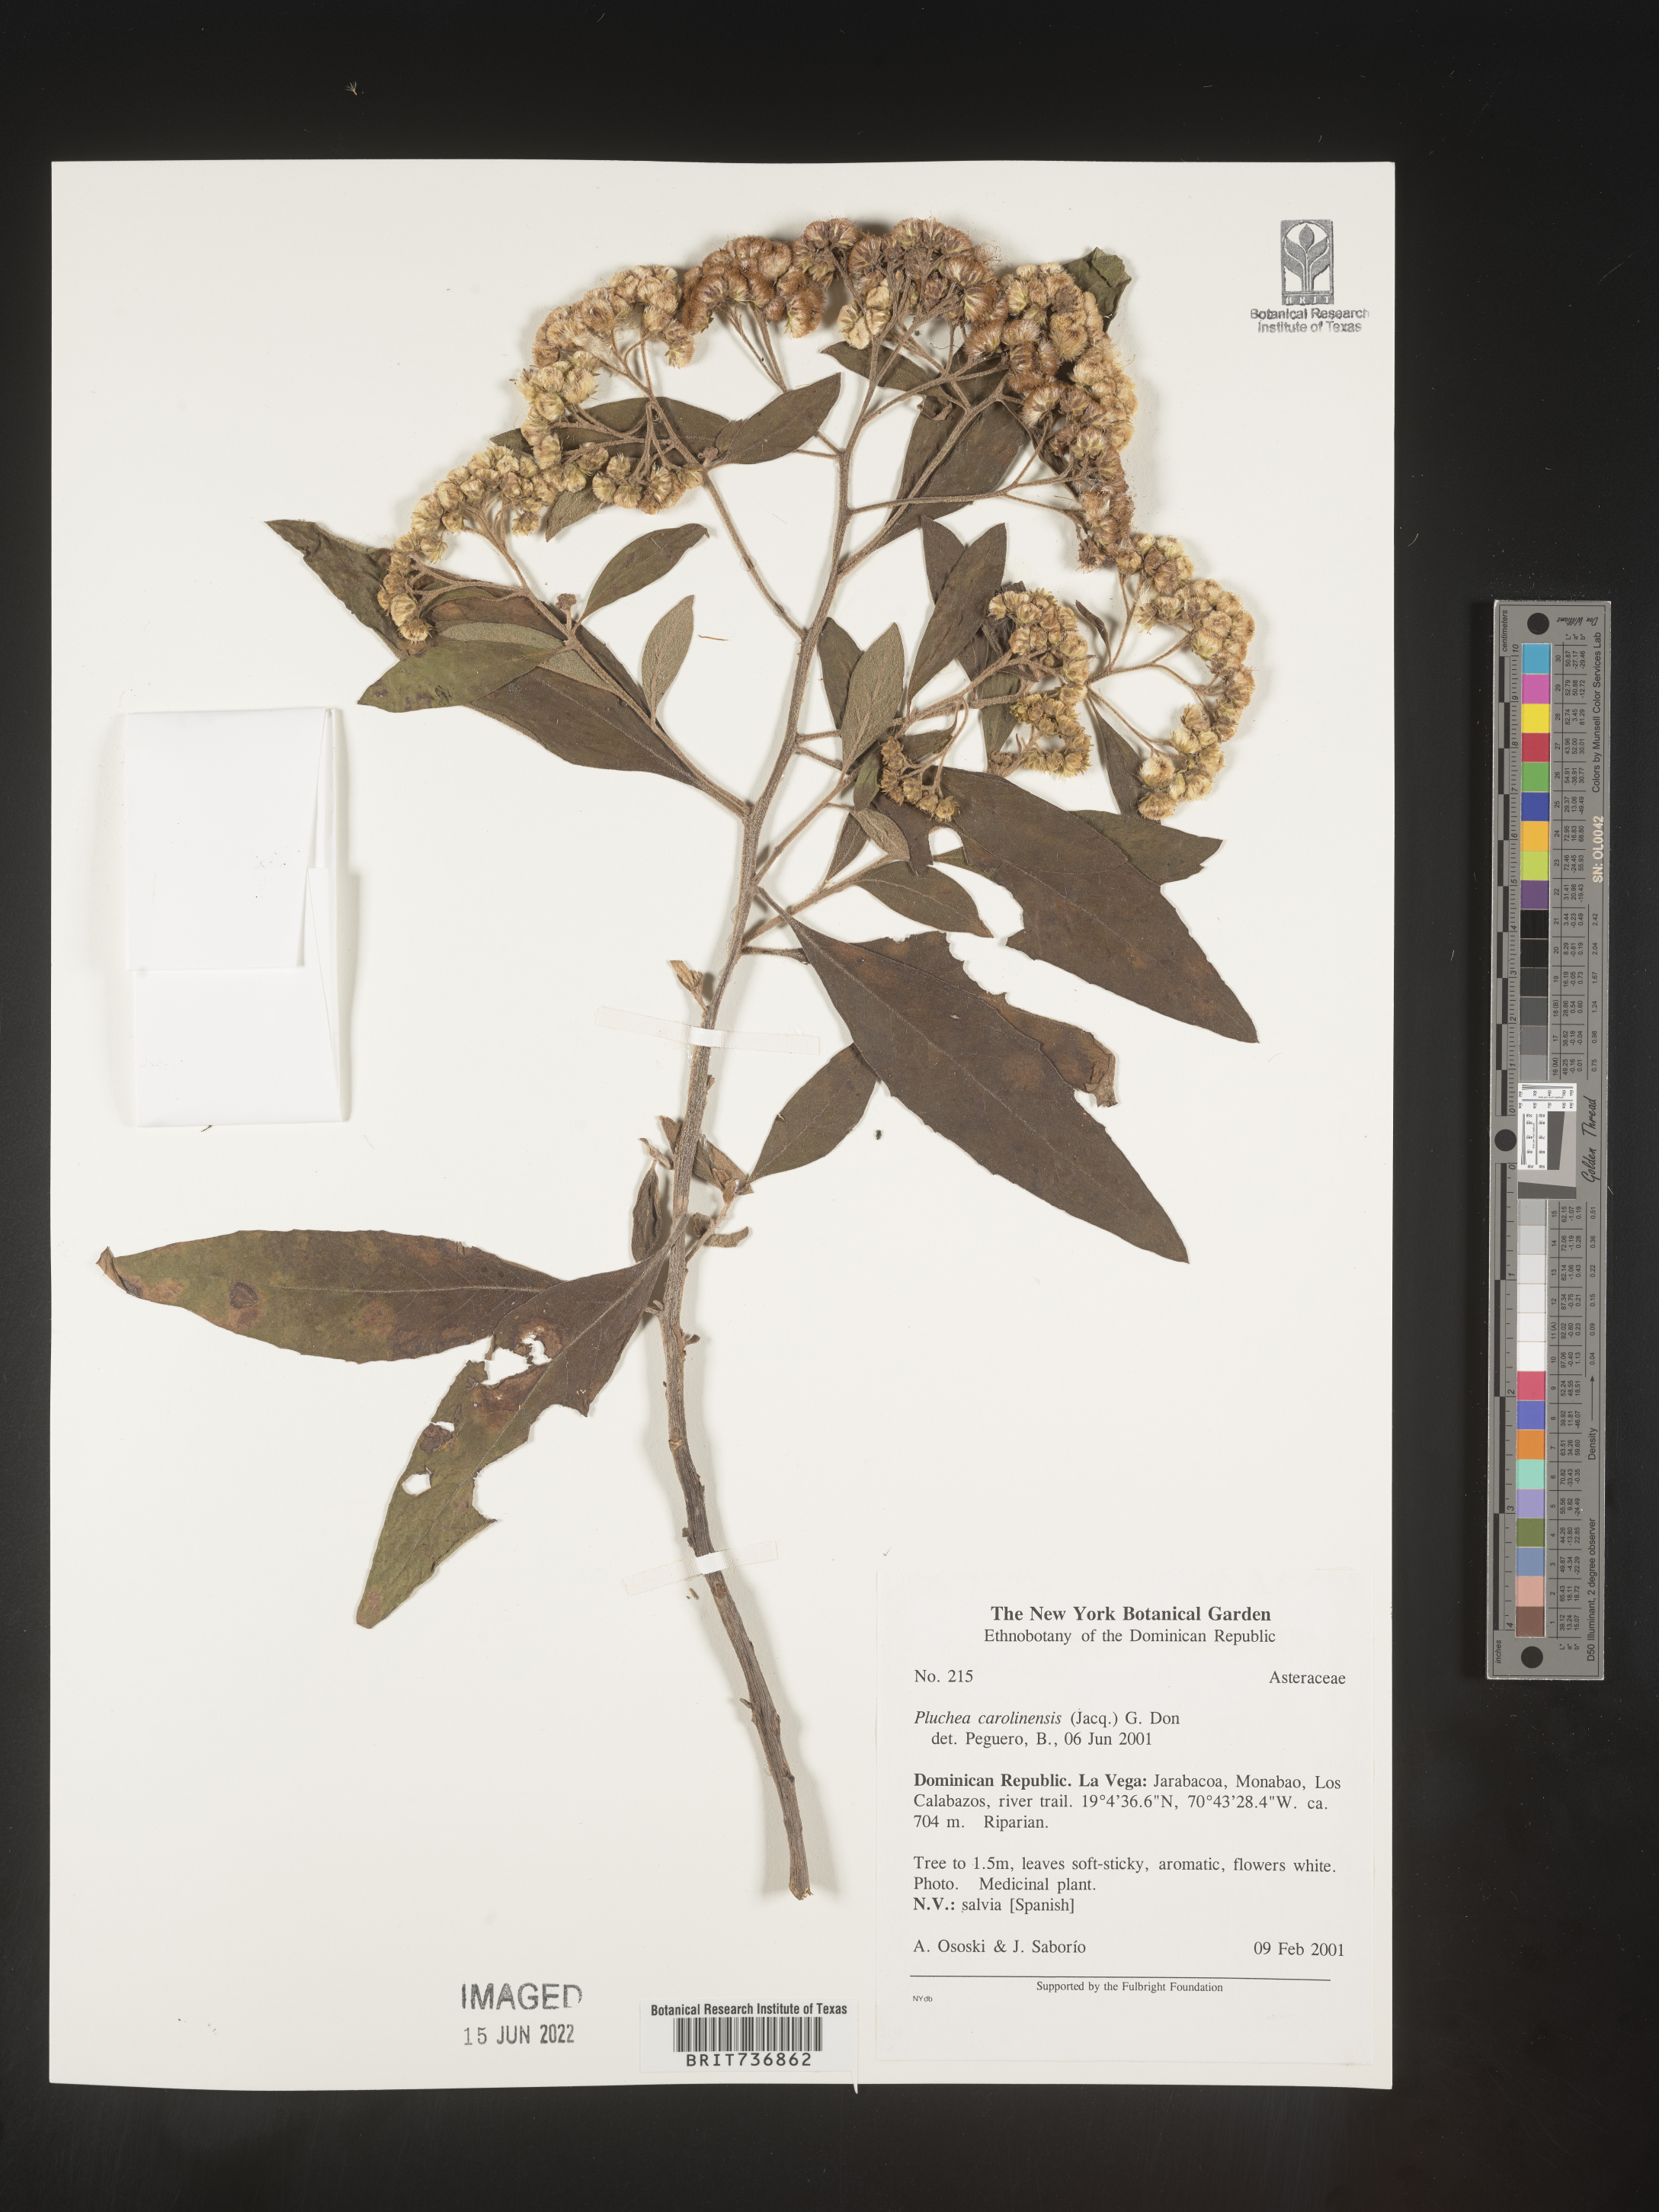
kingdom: Plantae
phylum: Tracheophyta
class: Magnoliopsida
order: Asterales
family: Asteraceae
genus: Pluchea
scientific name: Pluchea
